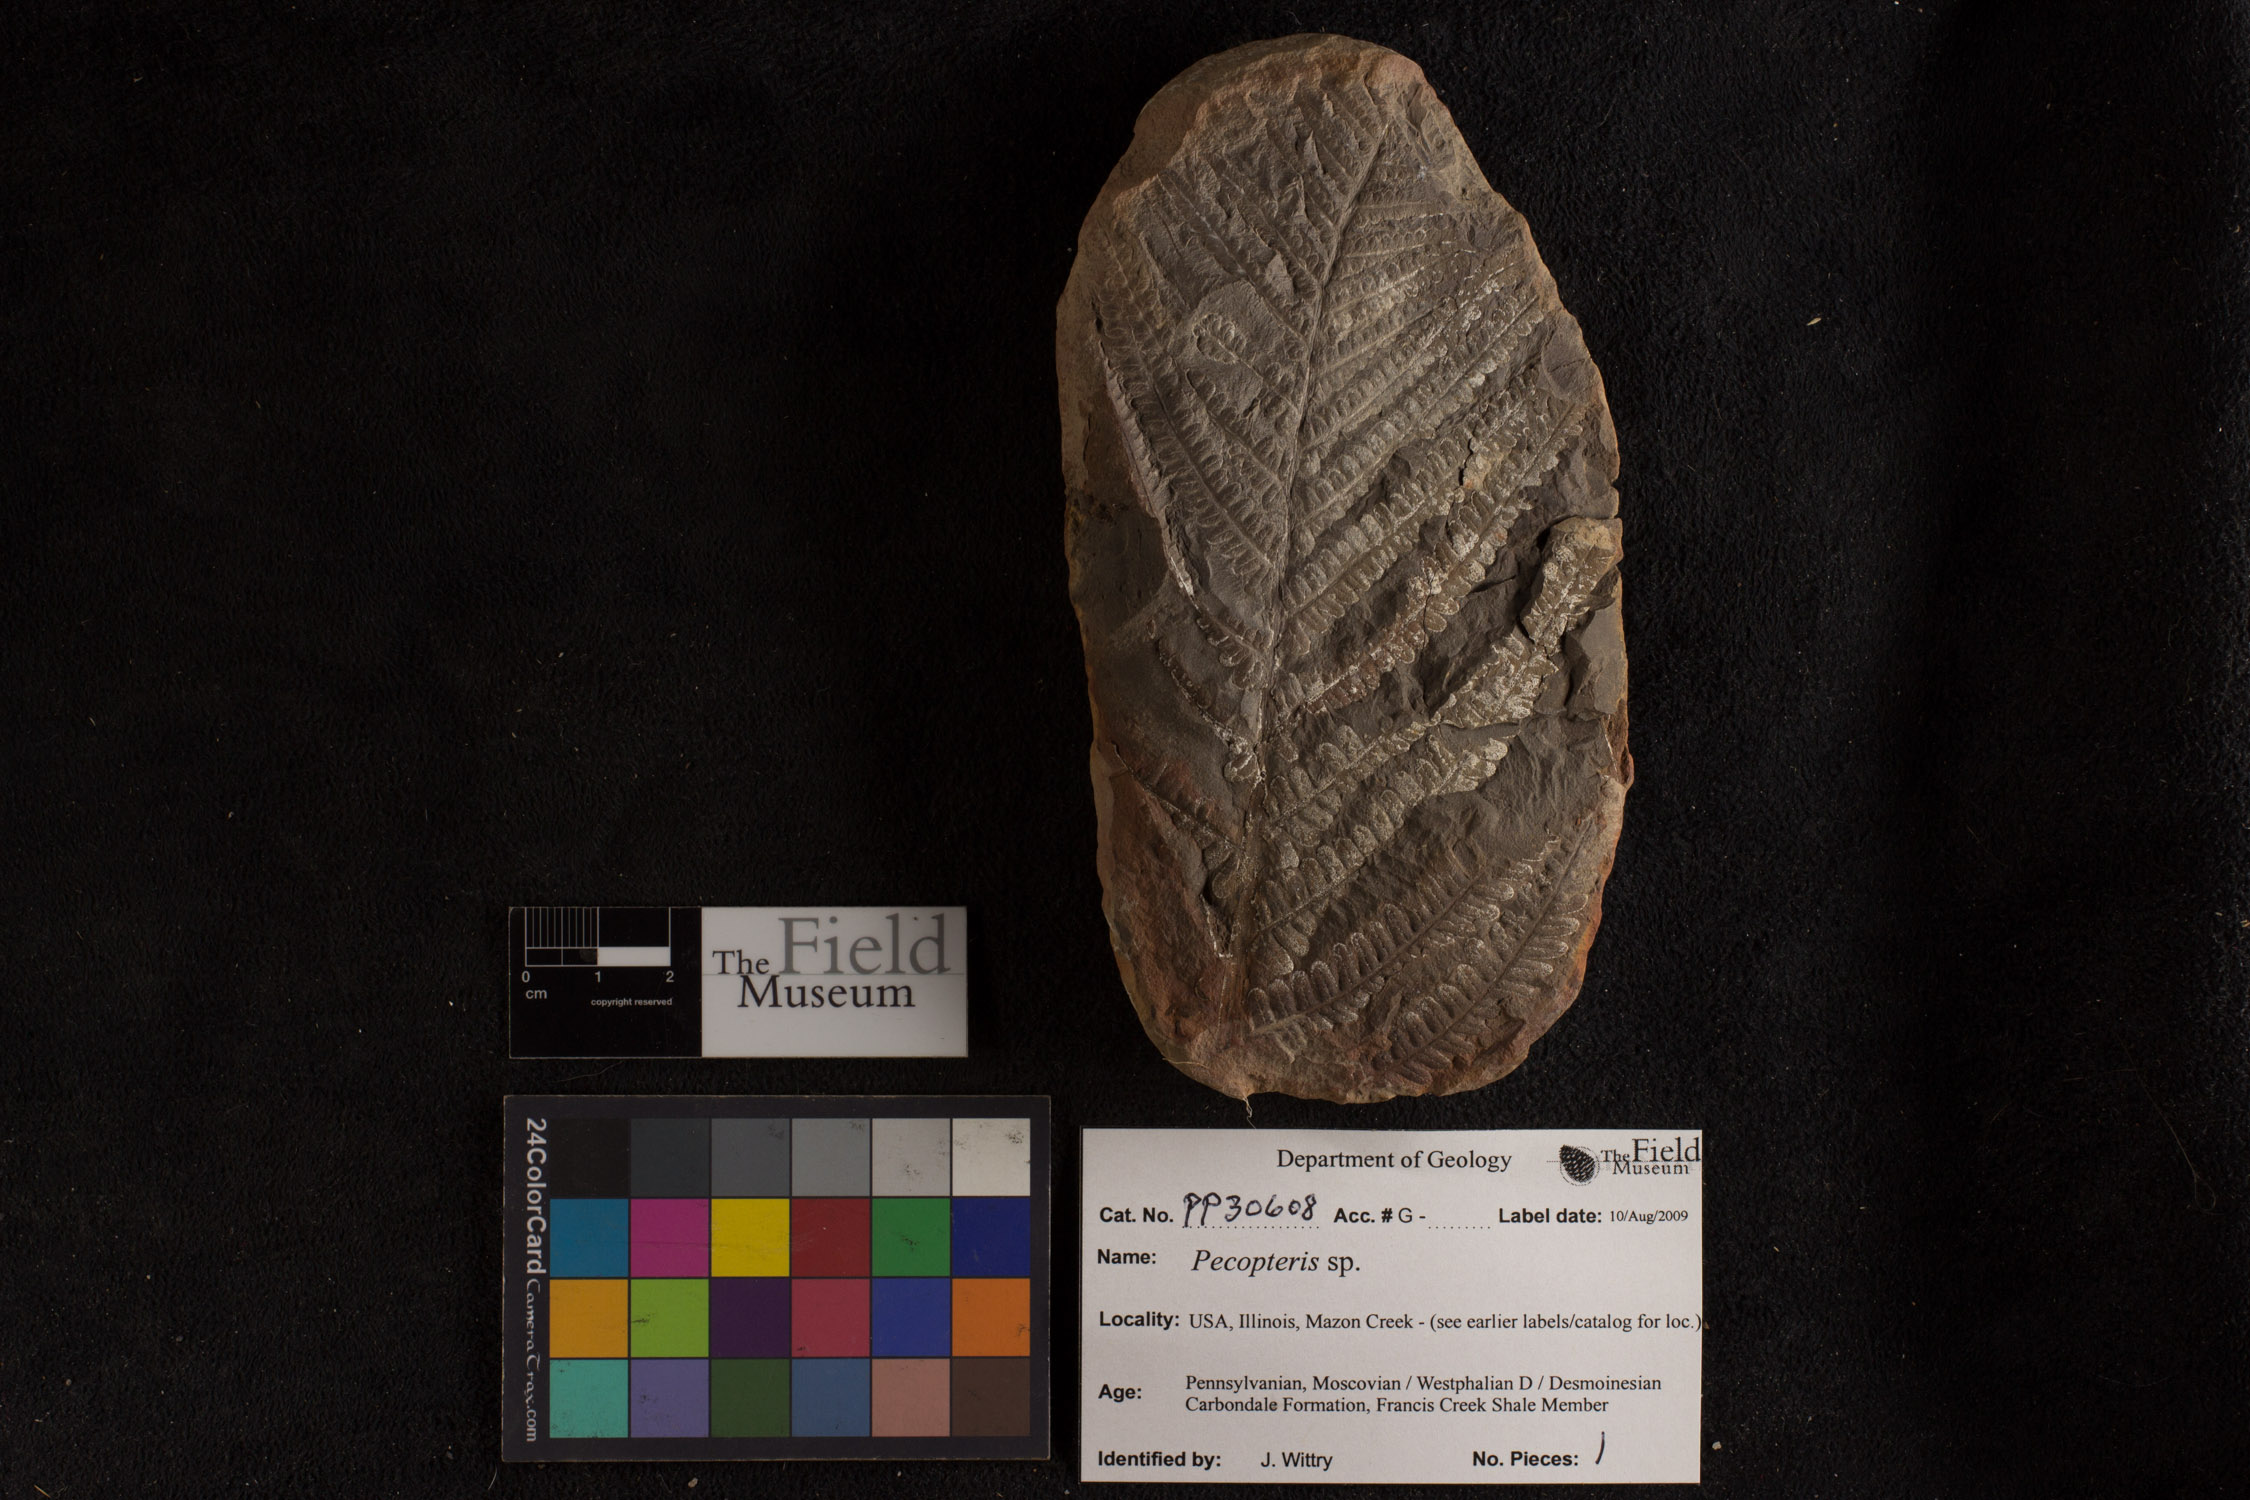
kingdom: Plantae
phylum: Tracheophyta
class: Polypodiopsida
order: Marattiales
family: Asterothecaceae
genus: Pecopteris
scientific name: Pecopteris
